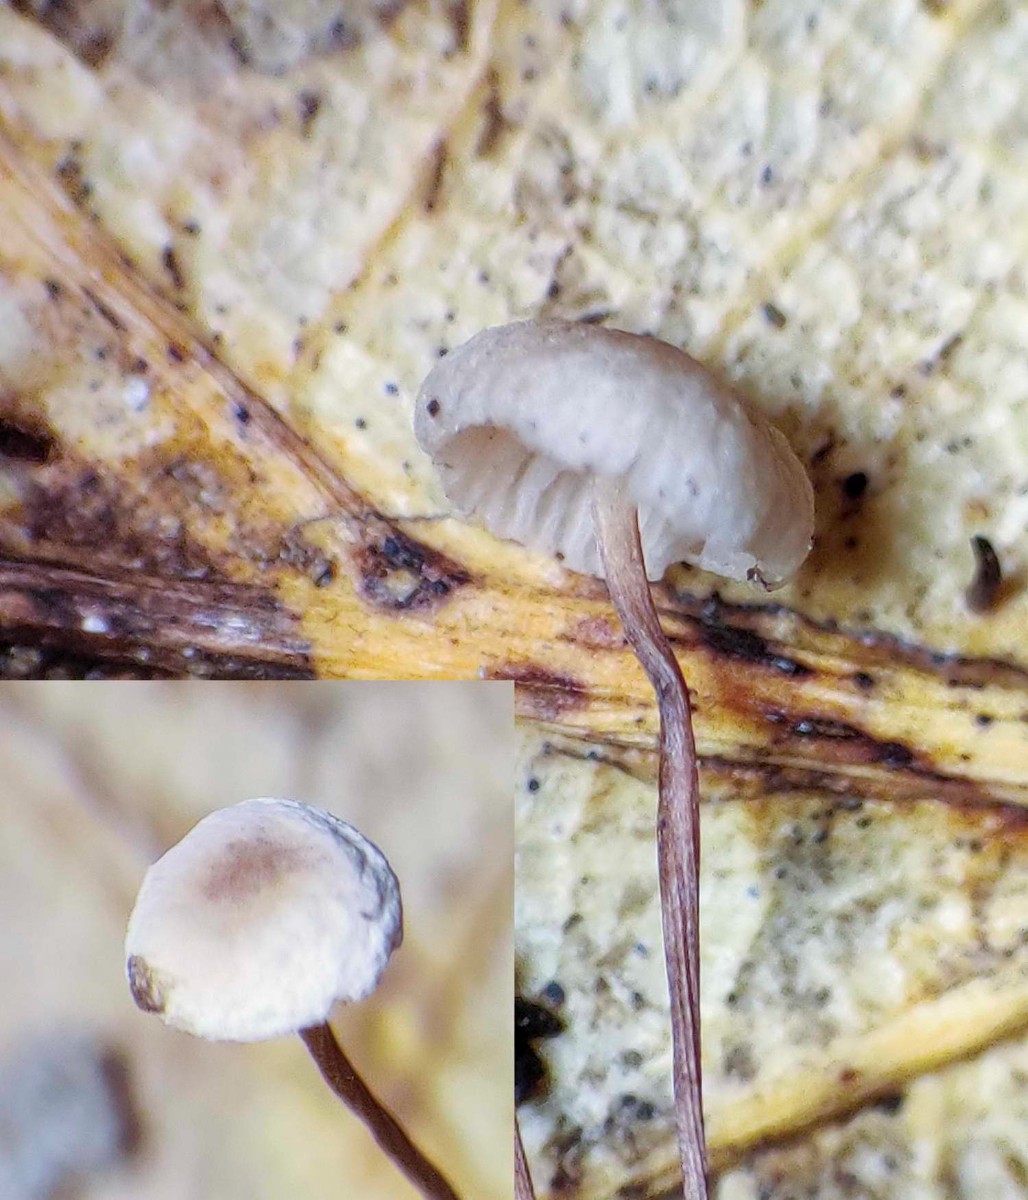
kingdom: Fungi
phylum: Basidiomycota
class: Agaricomycetes
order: Agaricales
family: Omphalotaceae
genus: Collybiopsis
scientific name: Collybiopsis quercophila
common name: egeblads-bruskhat
